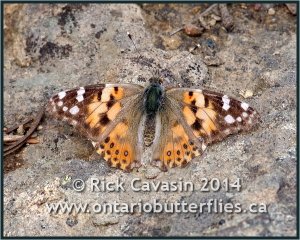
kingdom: Animalia
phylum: Arthropoda
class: Insecta
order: Lepidoptera
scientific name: Lepidoptera
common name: Butterflies
